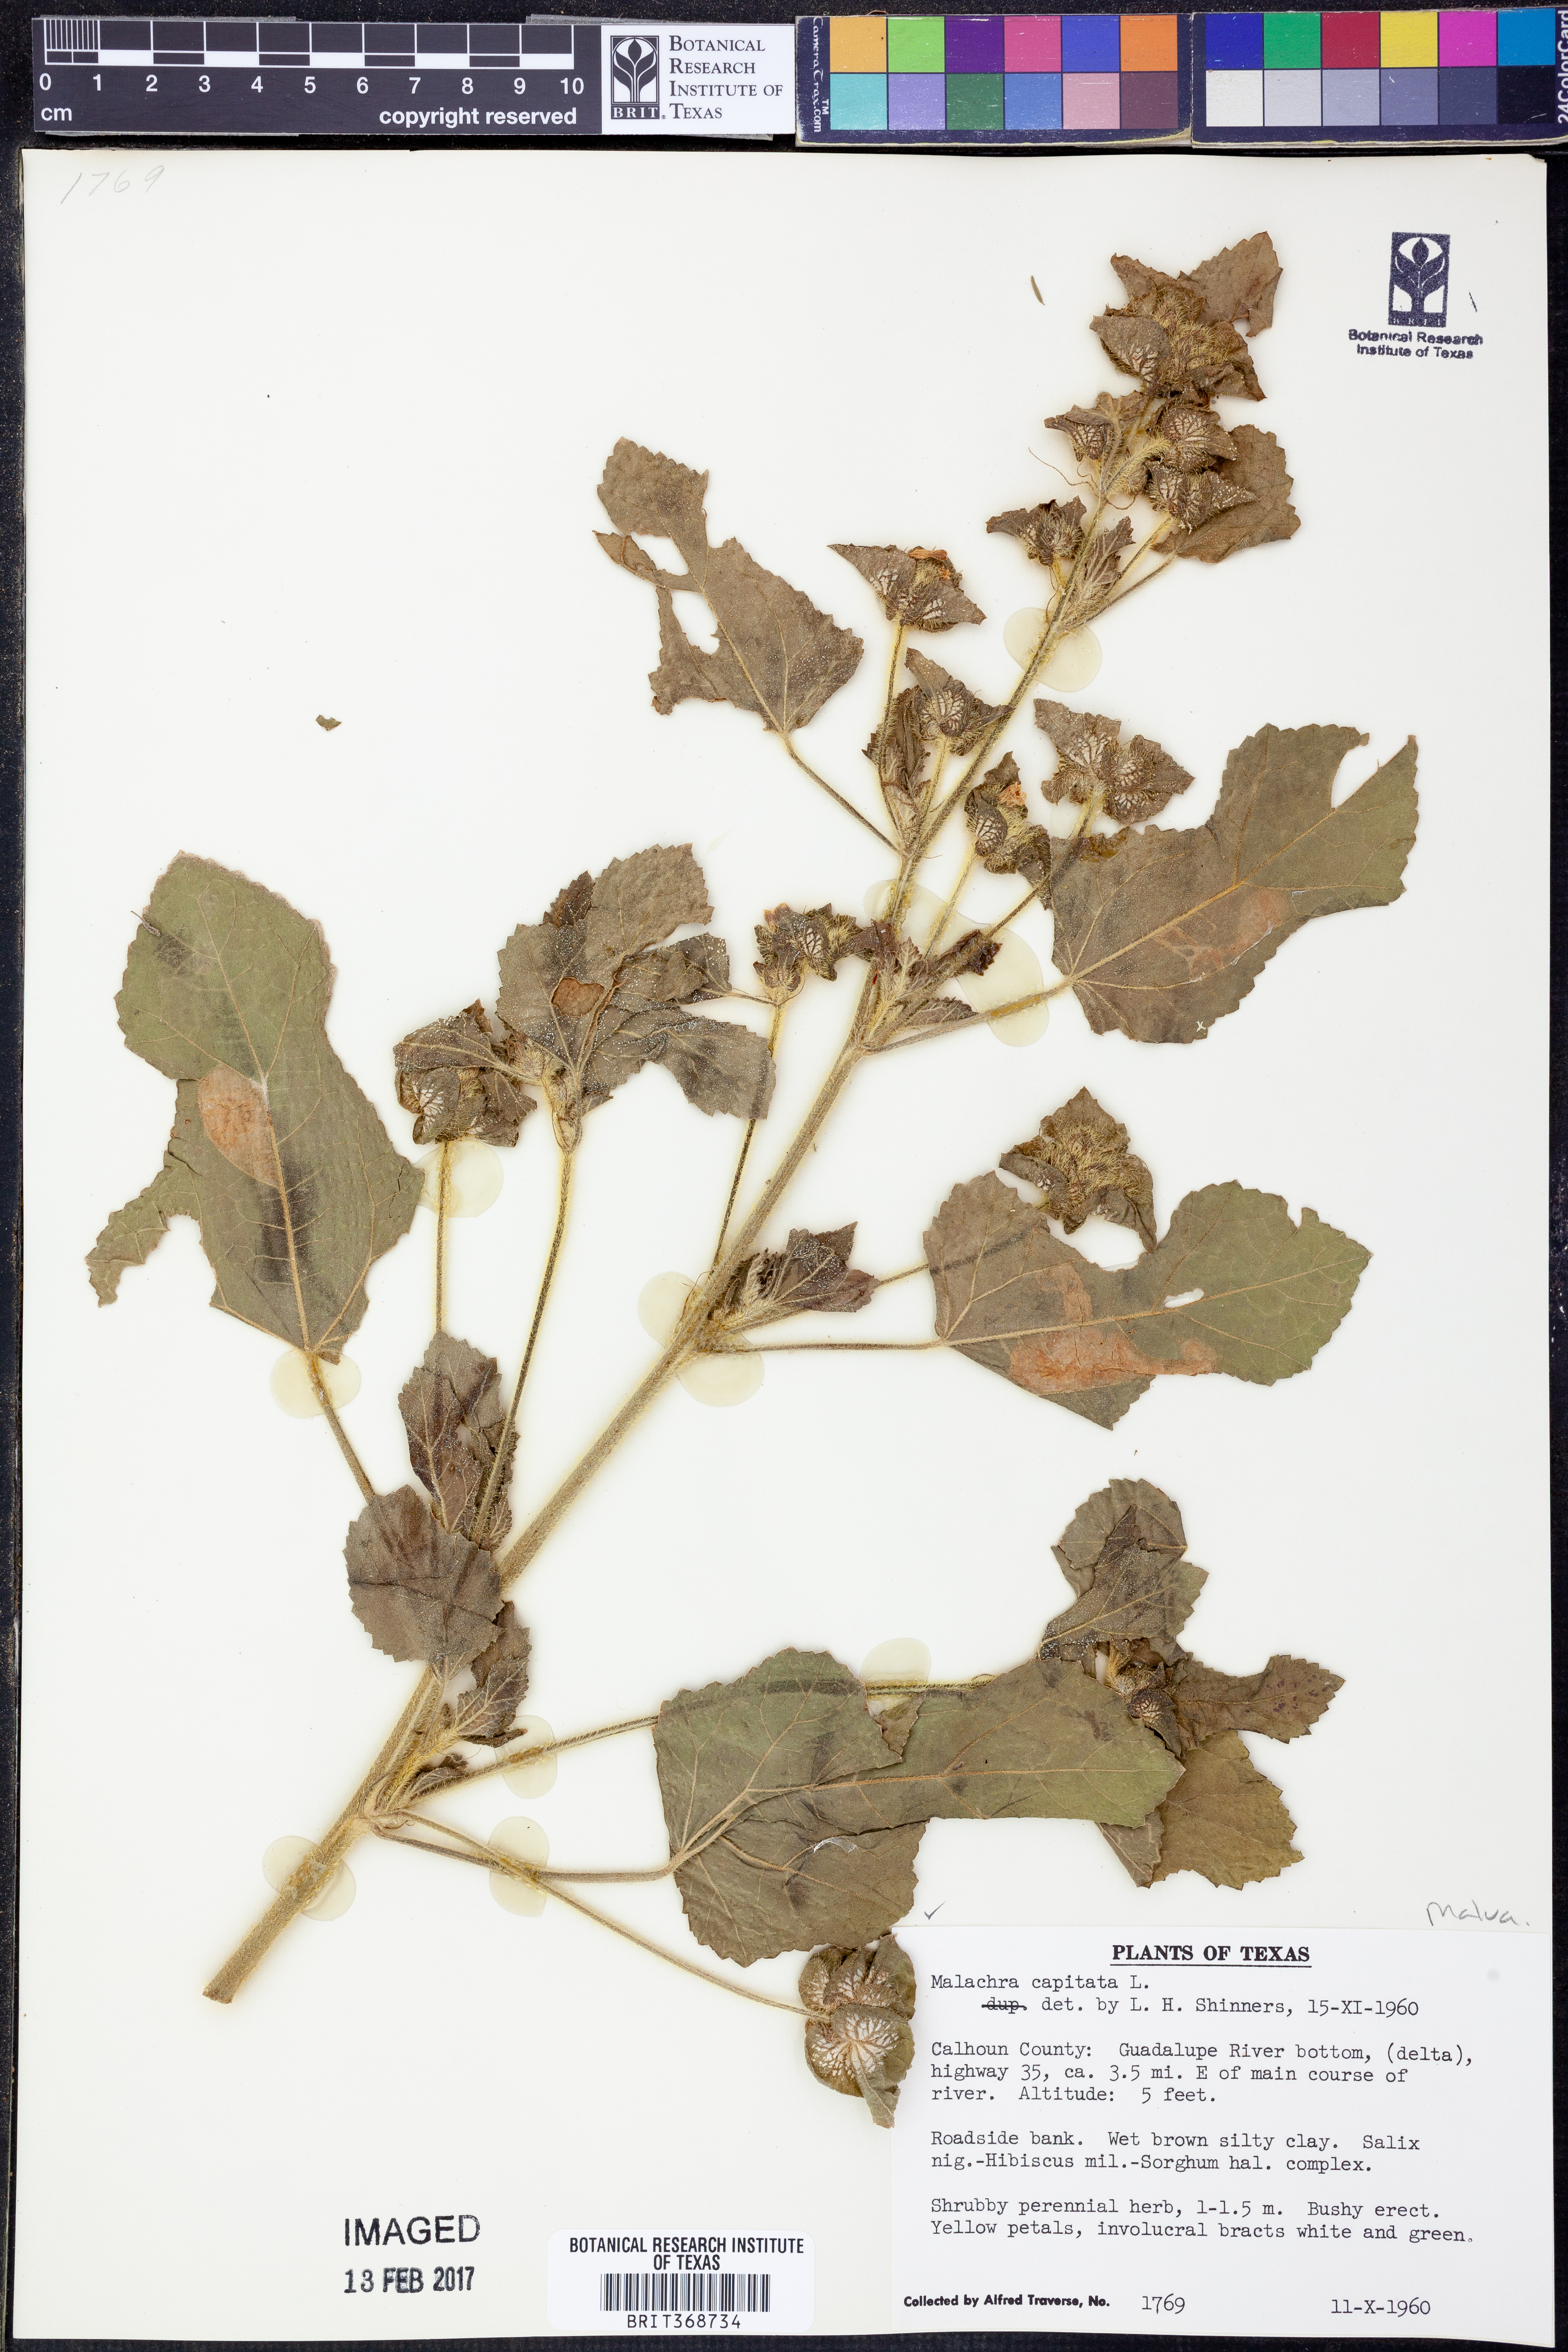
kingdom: Plantae
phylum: Tracheophyta
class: Magnoliopsida
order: Malvales
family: Malvaceae
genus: Malachra
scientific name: Malachra capitata
